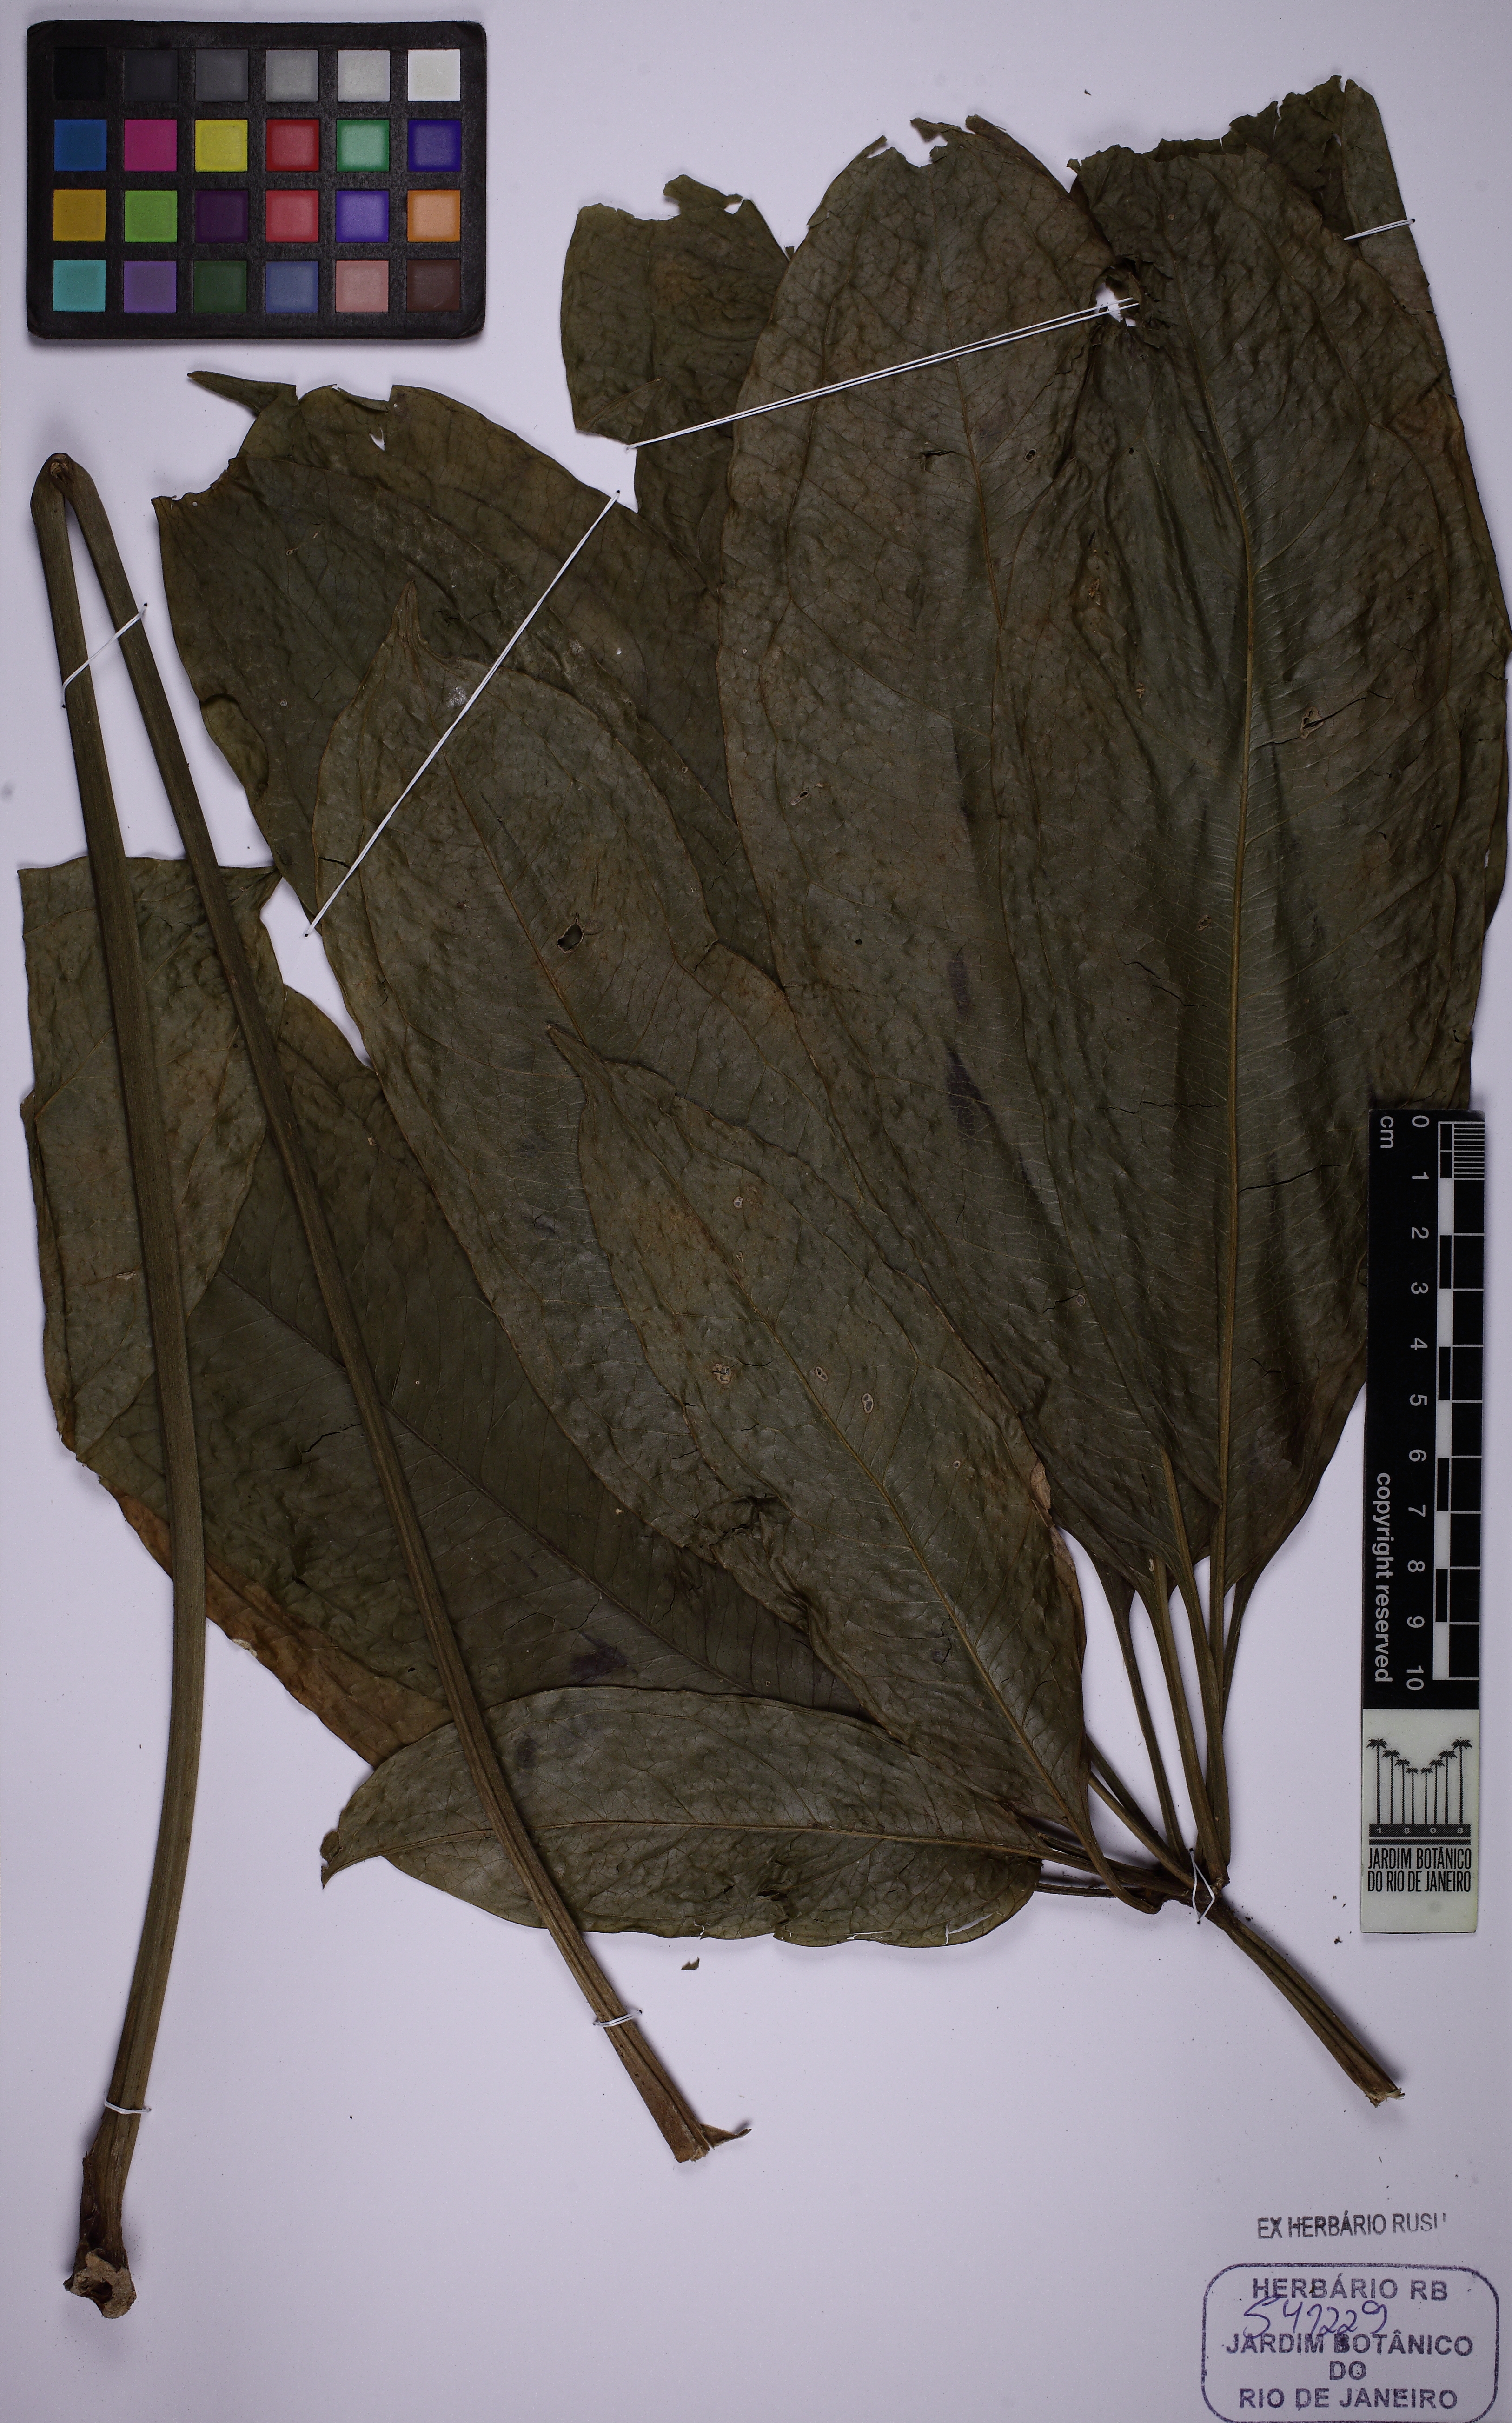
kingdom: Plantae
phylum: Tracheophyta
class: Liliopsida
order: Alismatales
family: Araceae
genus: Anthurium
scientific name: Anthurium pentaphyllum
